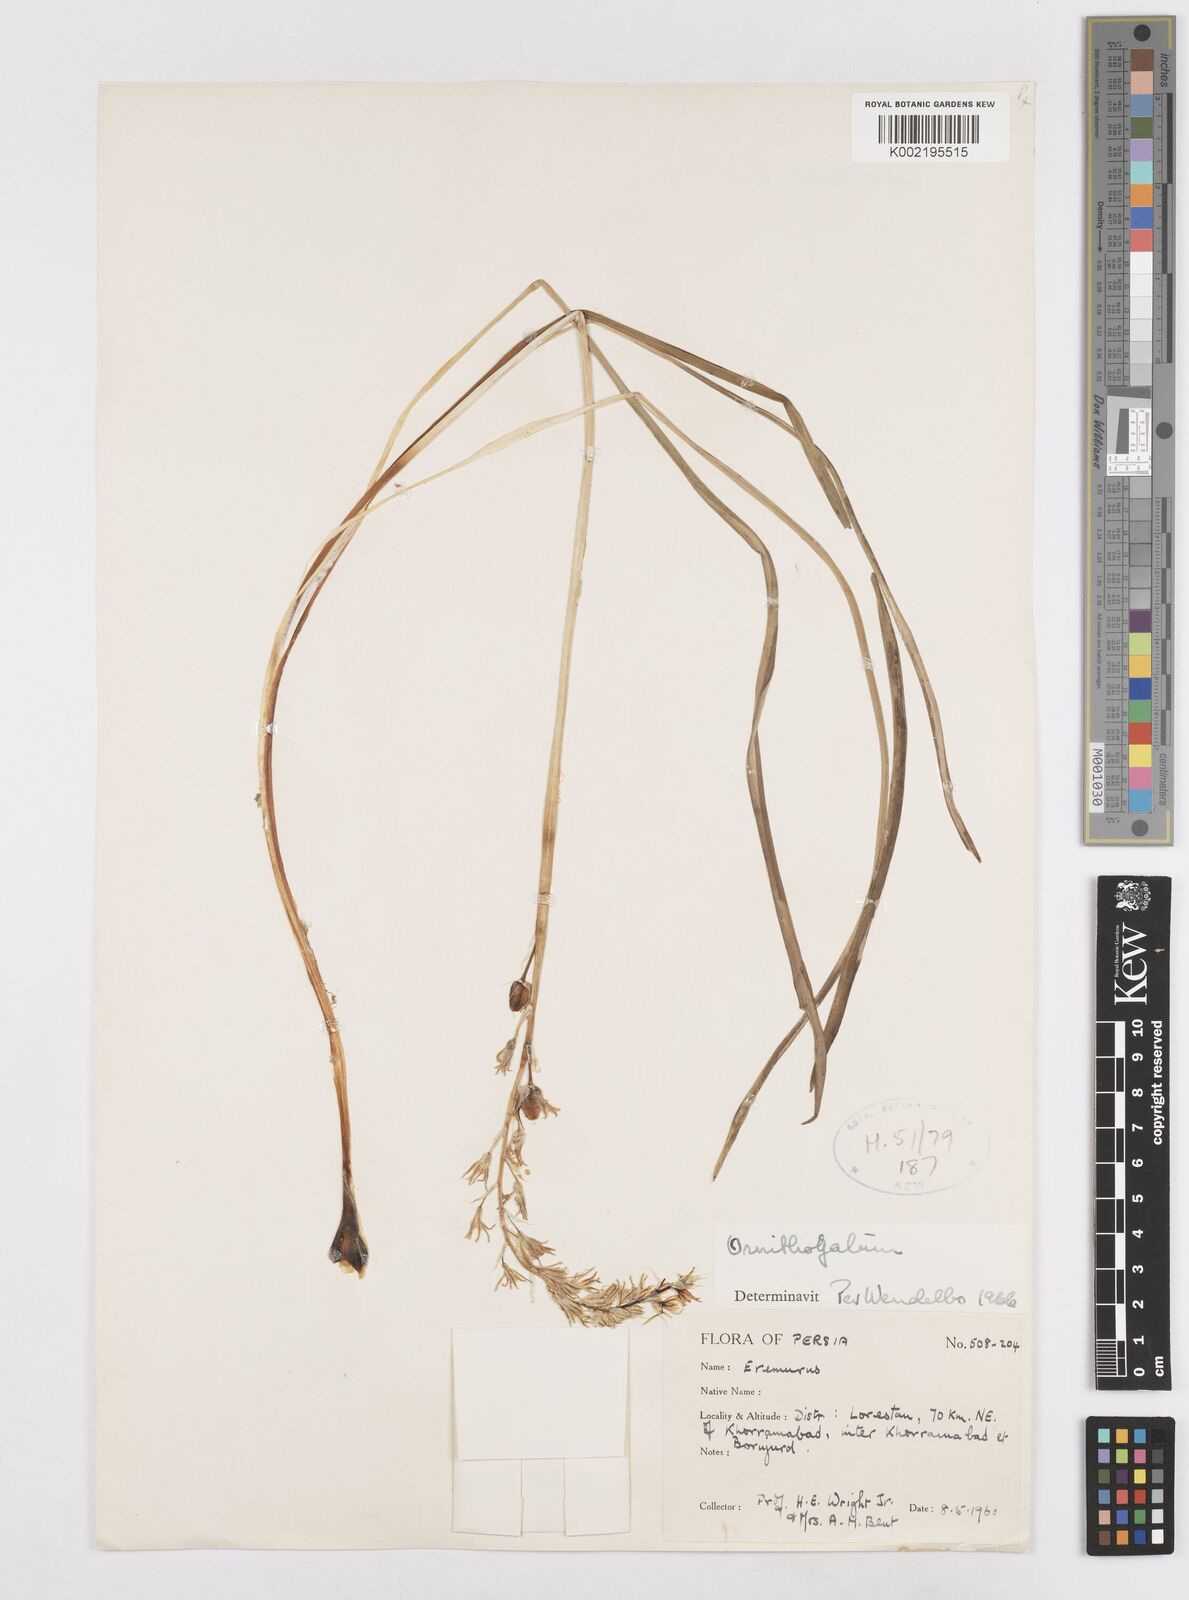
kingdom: Plantae
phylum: Tracheophyta
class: Liliopsida
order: Asparagales
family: Asparagaceae
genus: Ornithogalum
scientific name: Ornithogalum
